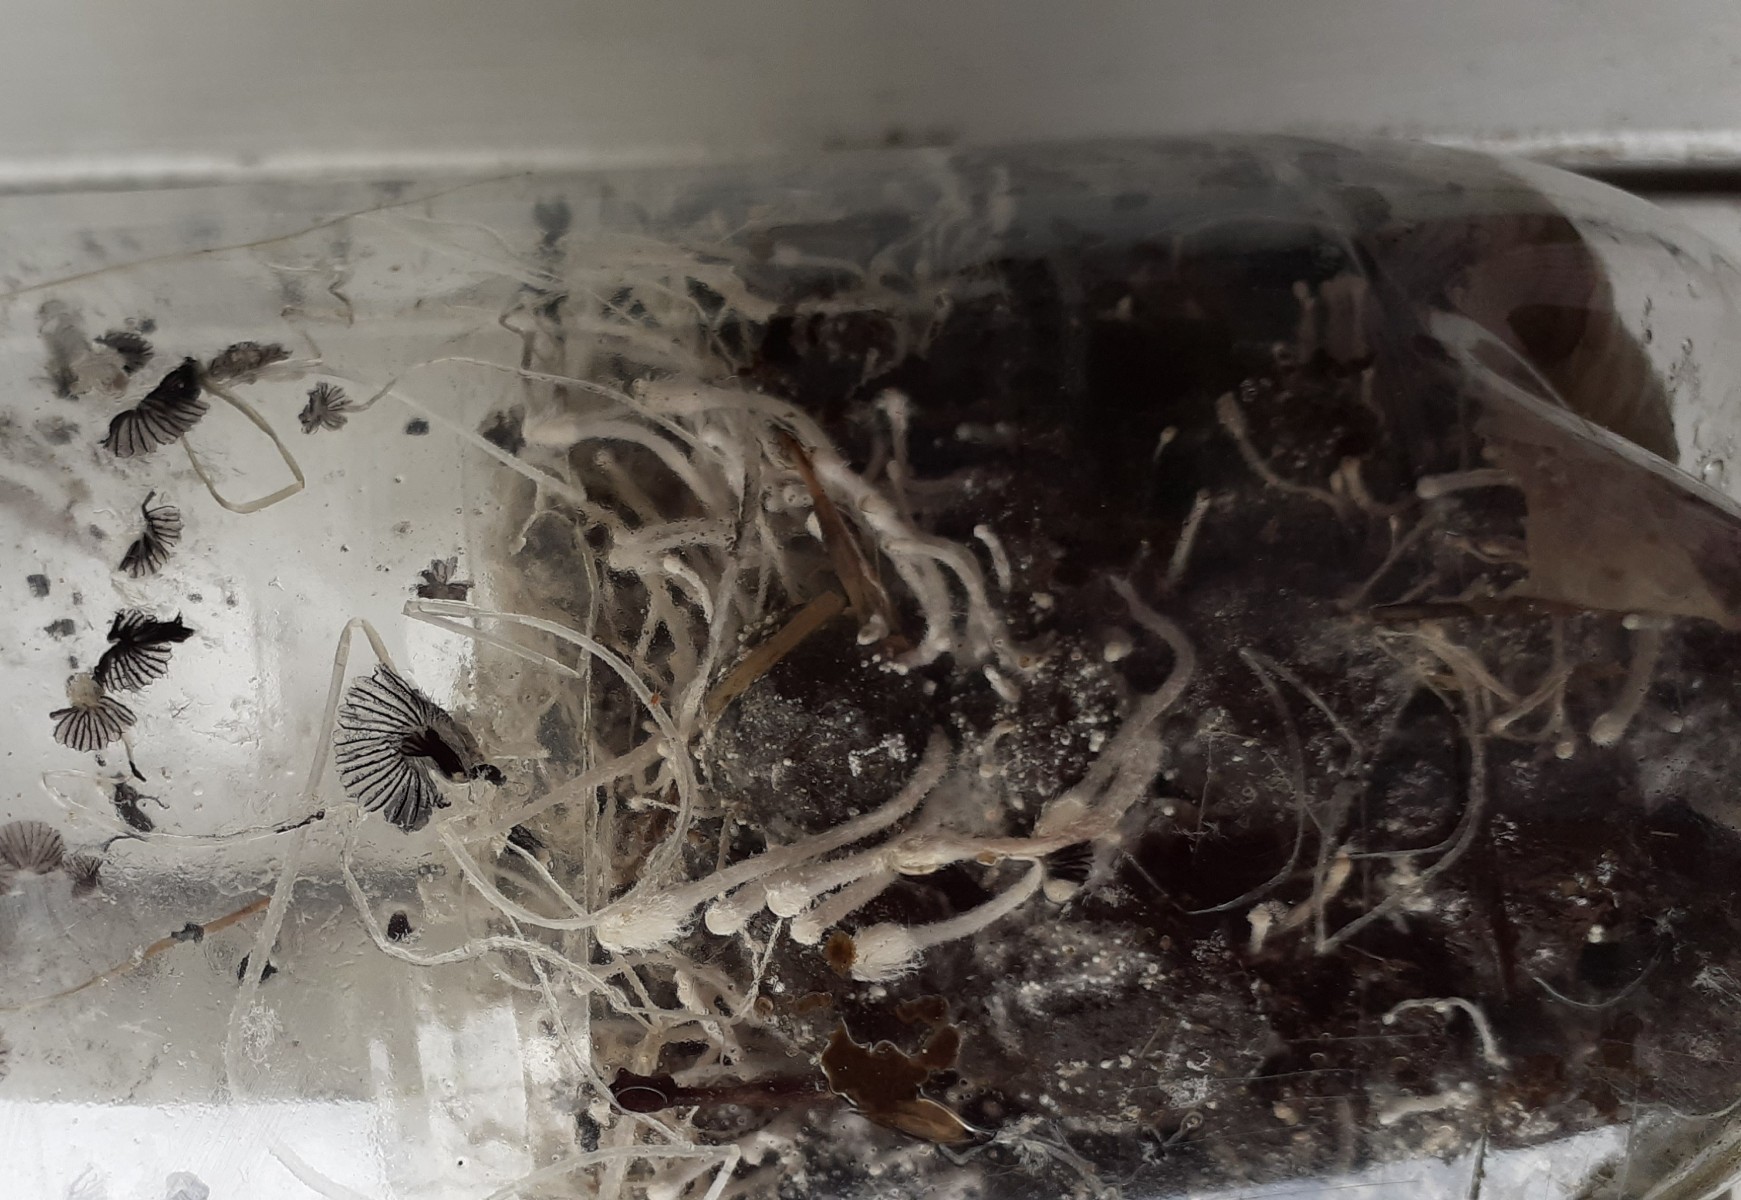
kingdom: Fungi
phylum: Basidiomycota
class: Agaricomycetes
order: Agaricales
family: Psathyrellaceae
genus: Coprinopsis
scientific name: Coprinopsis
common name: blækhat
